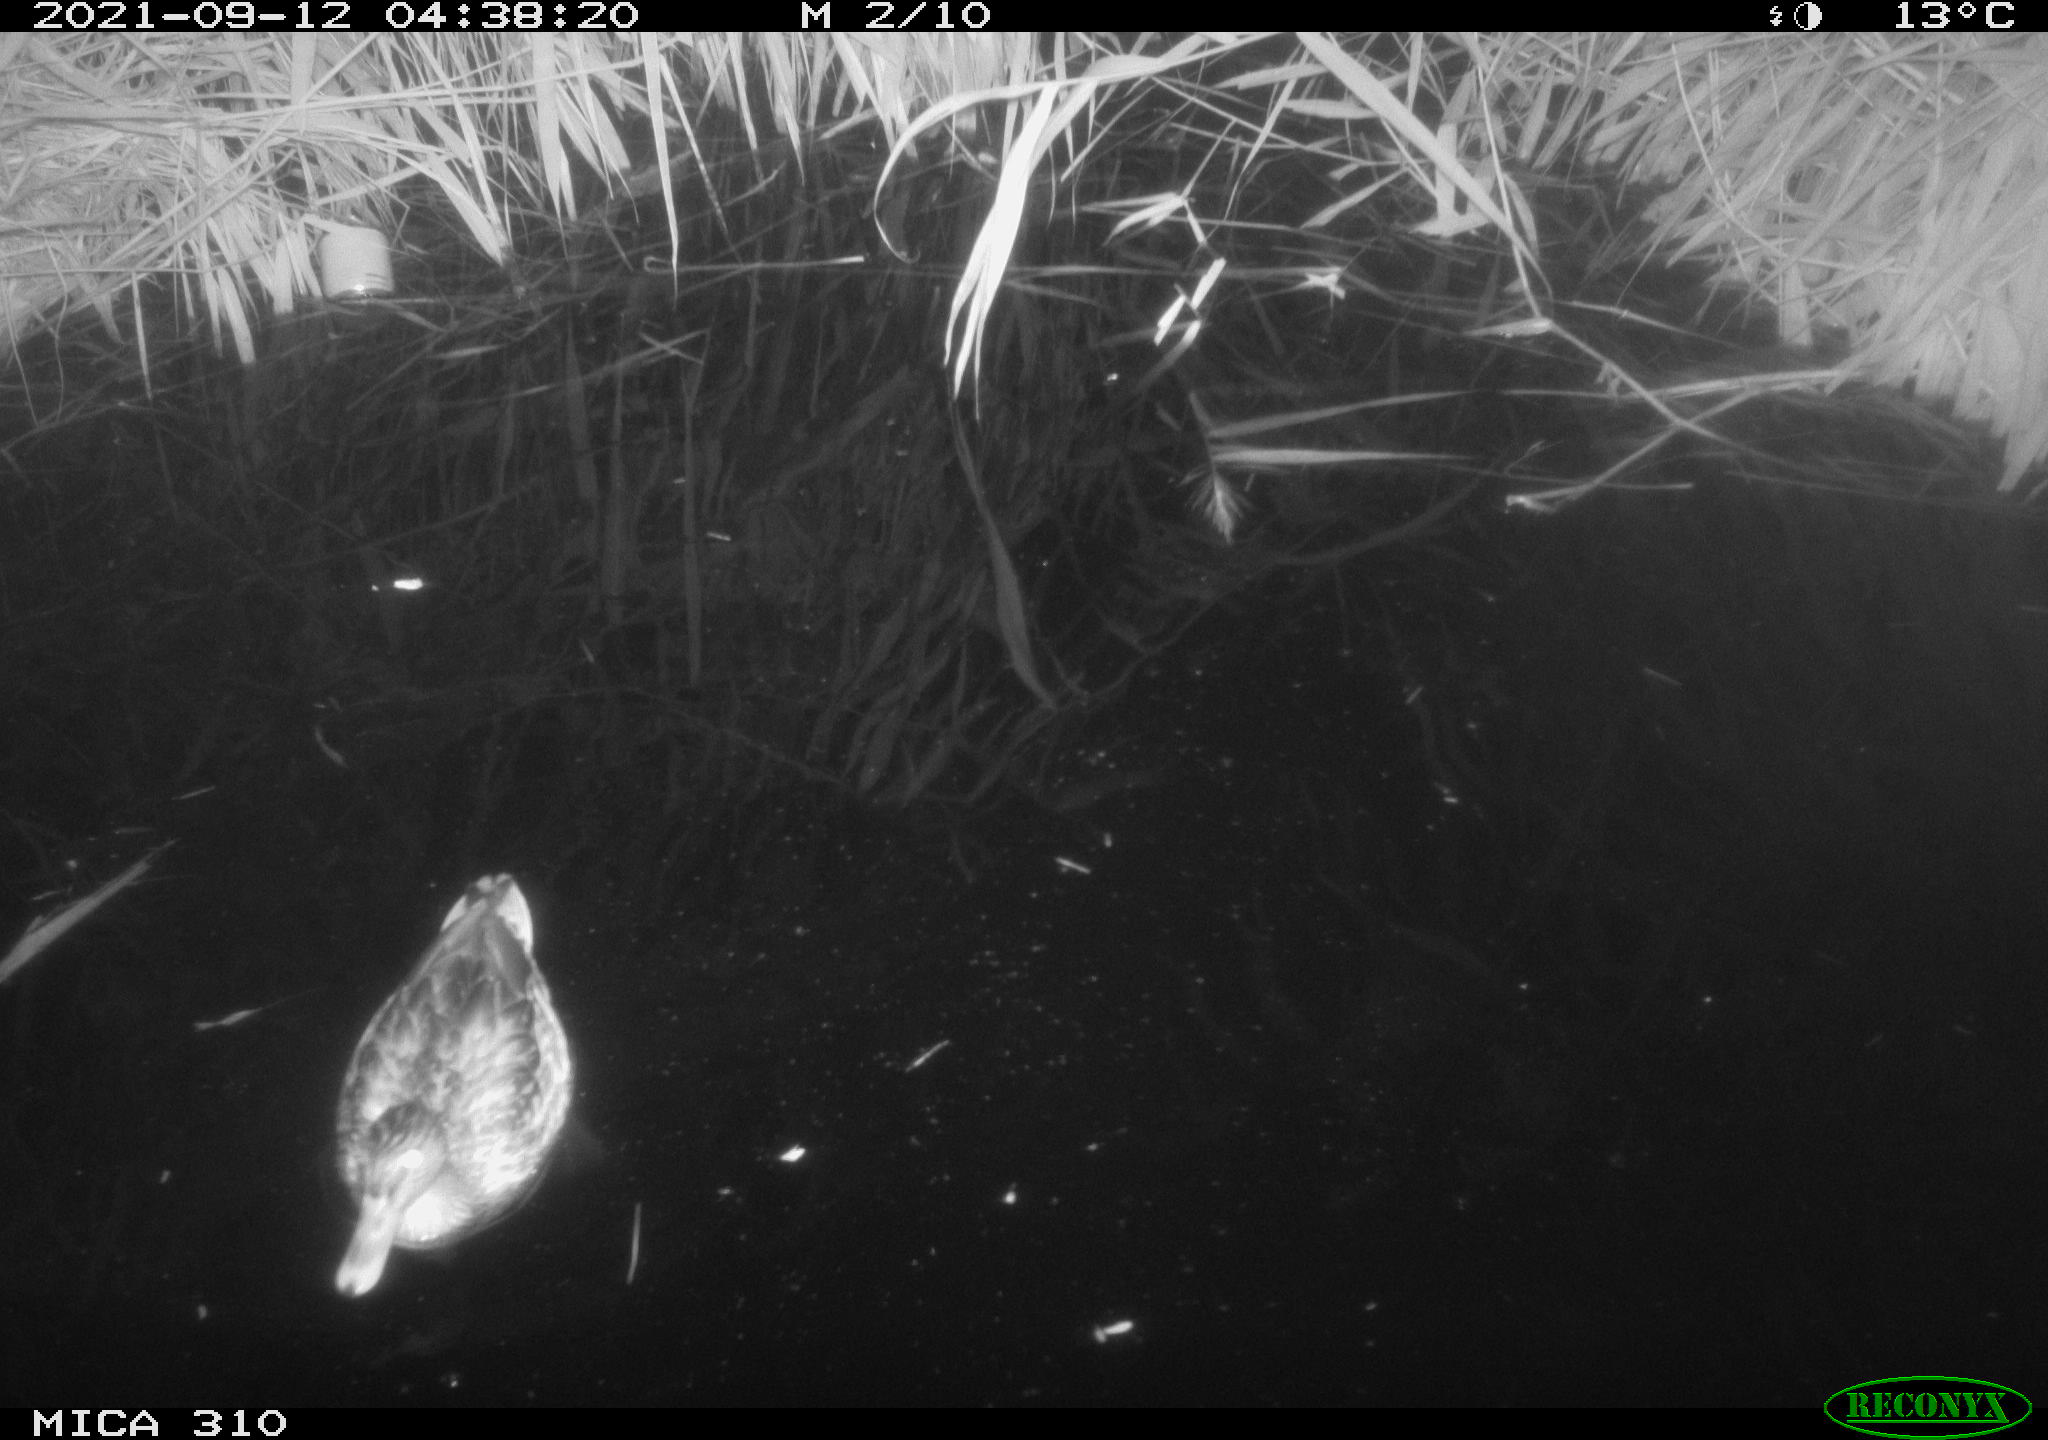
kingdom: Animalia
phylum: Chordata
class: Aves
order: Anseriformes
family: Anatidae
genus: Mareca
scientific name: Mareca strepera
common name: Gadwall
